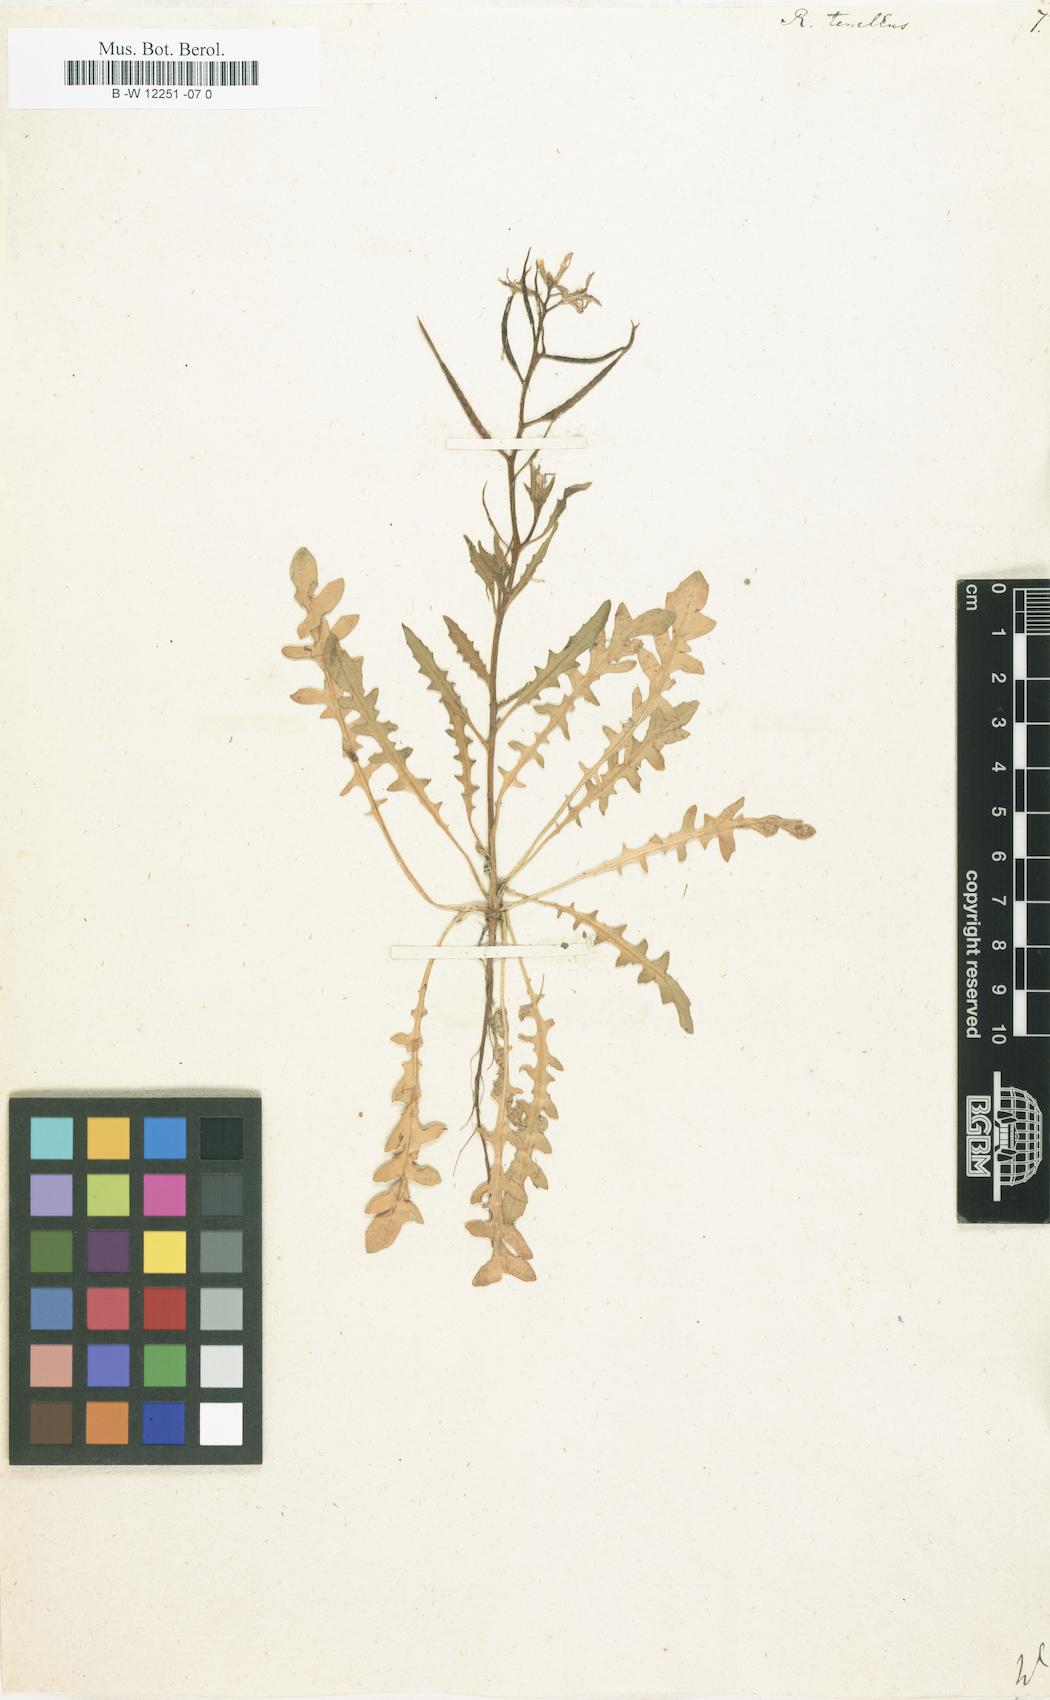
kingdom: Plantae
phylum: Tracheophyta
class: Magnoliopsida
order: Brassicales
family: Brassicaceae
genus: Chorispora
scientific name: Chorispora tenella
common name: Crossflower
